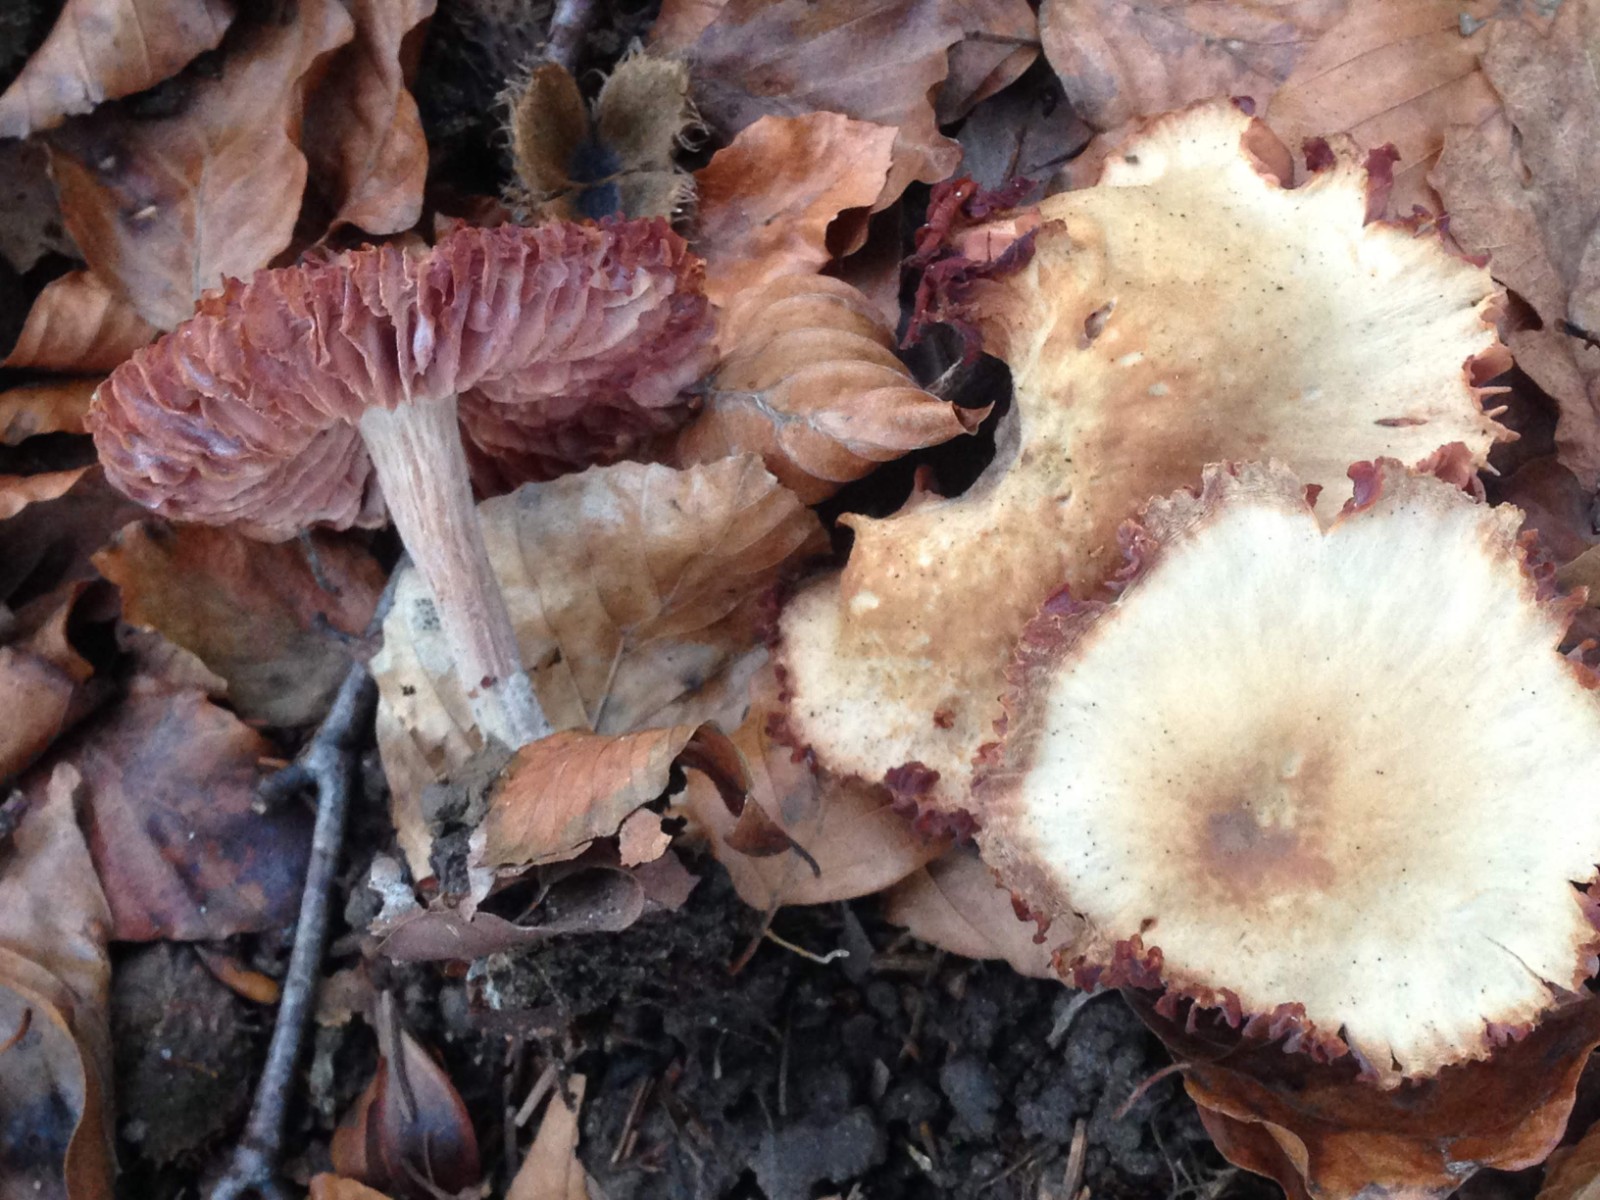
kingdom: Fungi
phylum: Basidiomycota
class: Agaricomycetes
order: Agaricales
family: Hydnangiaceae
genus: Laccaria
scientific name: Laccaria laccata
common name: rød ametysthat
